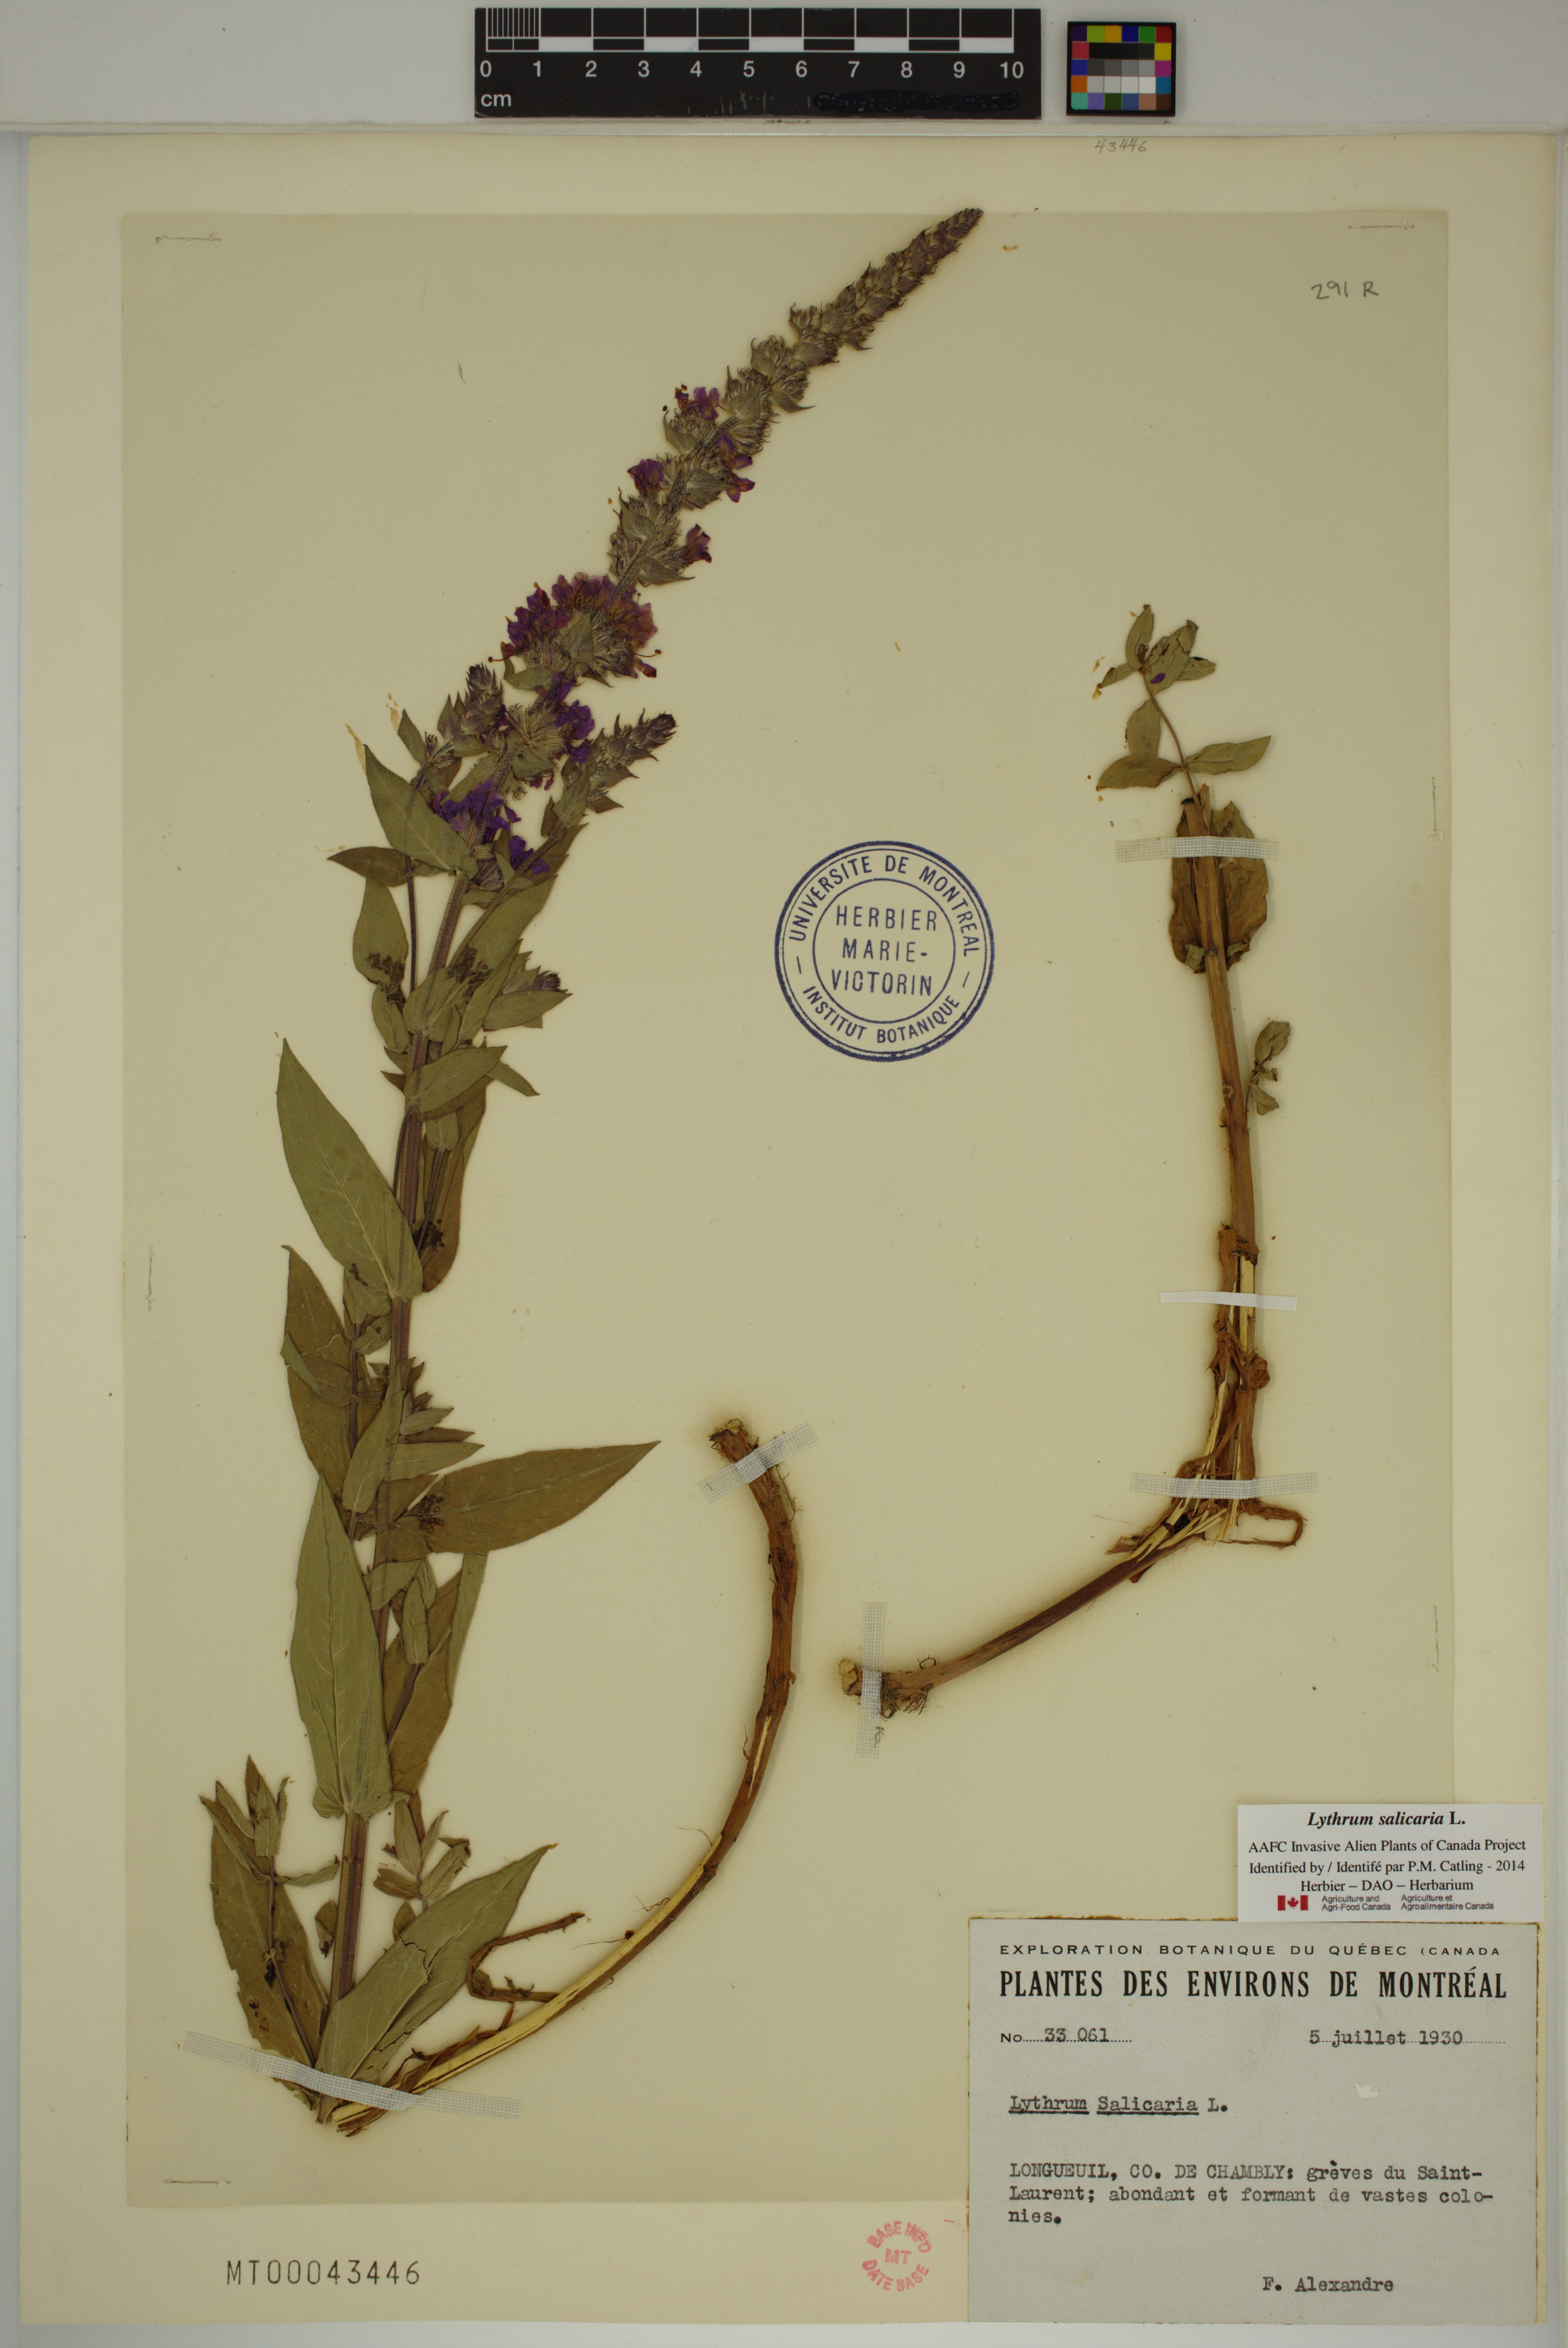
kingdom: Plantae
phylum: Tracheophyta
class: Magnoliopsida
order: Myrtales
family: Lythraceae
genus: Lythrum
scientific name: Lythrum salicaria
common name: Purple loosestrife
